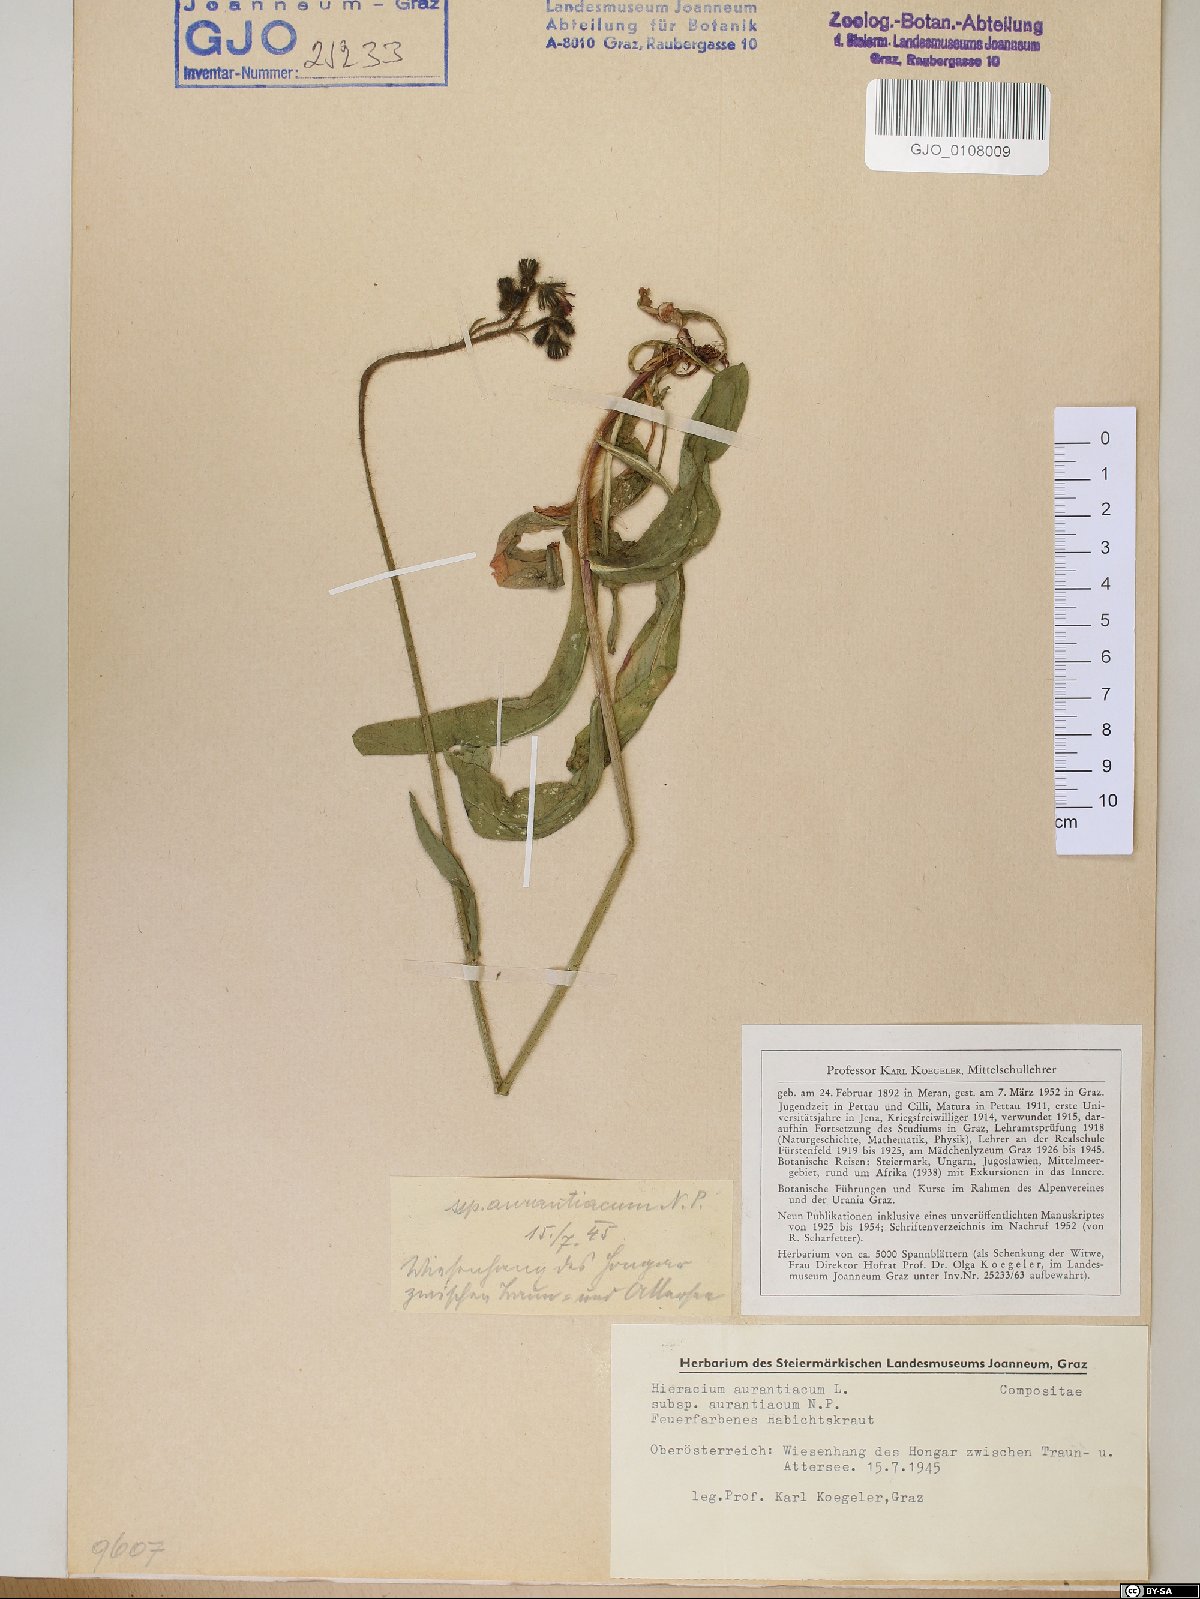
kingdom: Plantae
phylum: Tracheophyta
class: Magnoliopsida
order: Asterales
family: Asteraceae
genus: Pilosella
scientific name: Pilosella aurantiaca
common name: Fox-and-cubs
